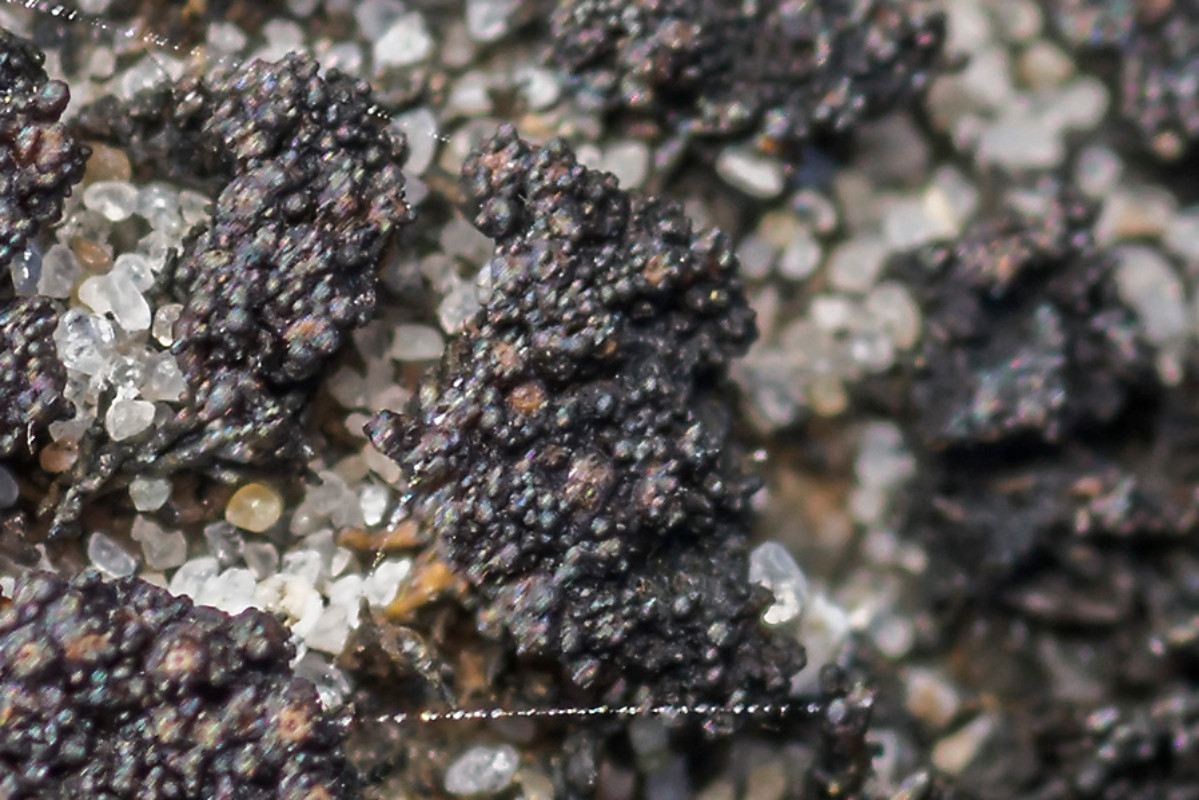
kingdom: Fungi
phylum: Ascomycota
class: Lichinomycetes
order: Lichinales
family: Lichinaceae
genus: Lichina
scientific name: Lichina confinis
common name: liden tanglav
